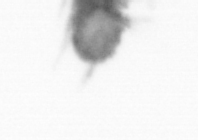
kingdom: Animalia
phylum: Annelida
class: Polychaeta
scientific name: Polychaeta
